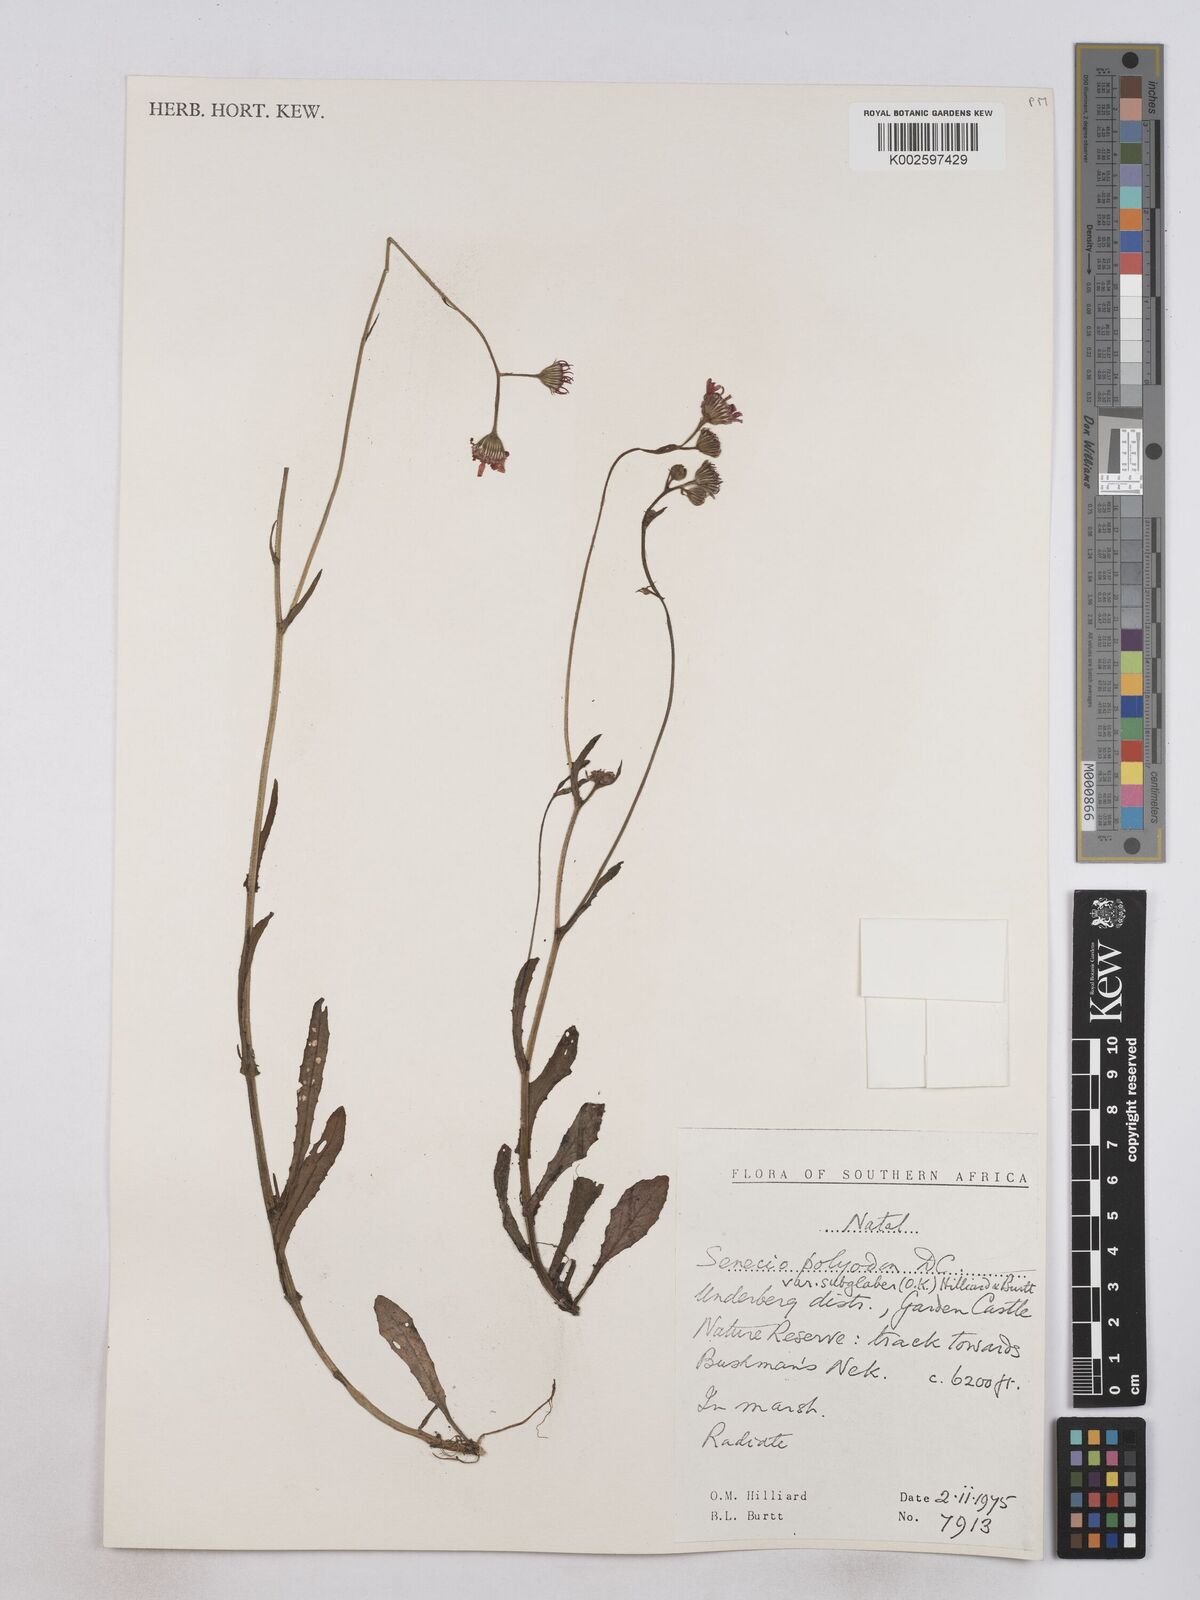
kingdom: Plantae
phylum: Tracheophyta
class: Magnoliopsida
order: Asterales
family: Asteraceae
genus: Senecio
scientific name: Senecio polyodon
